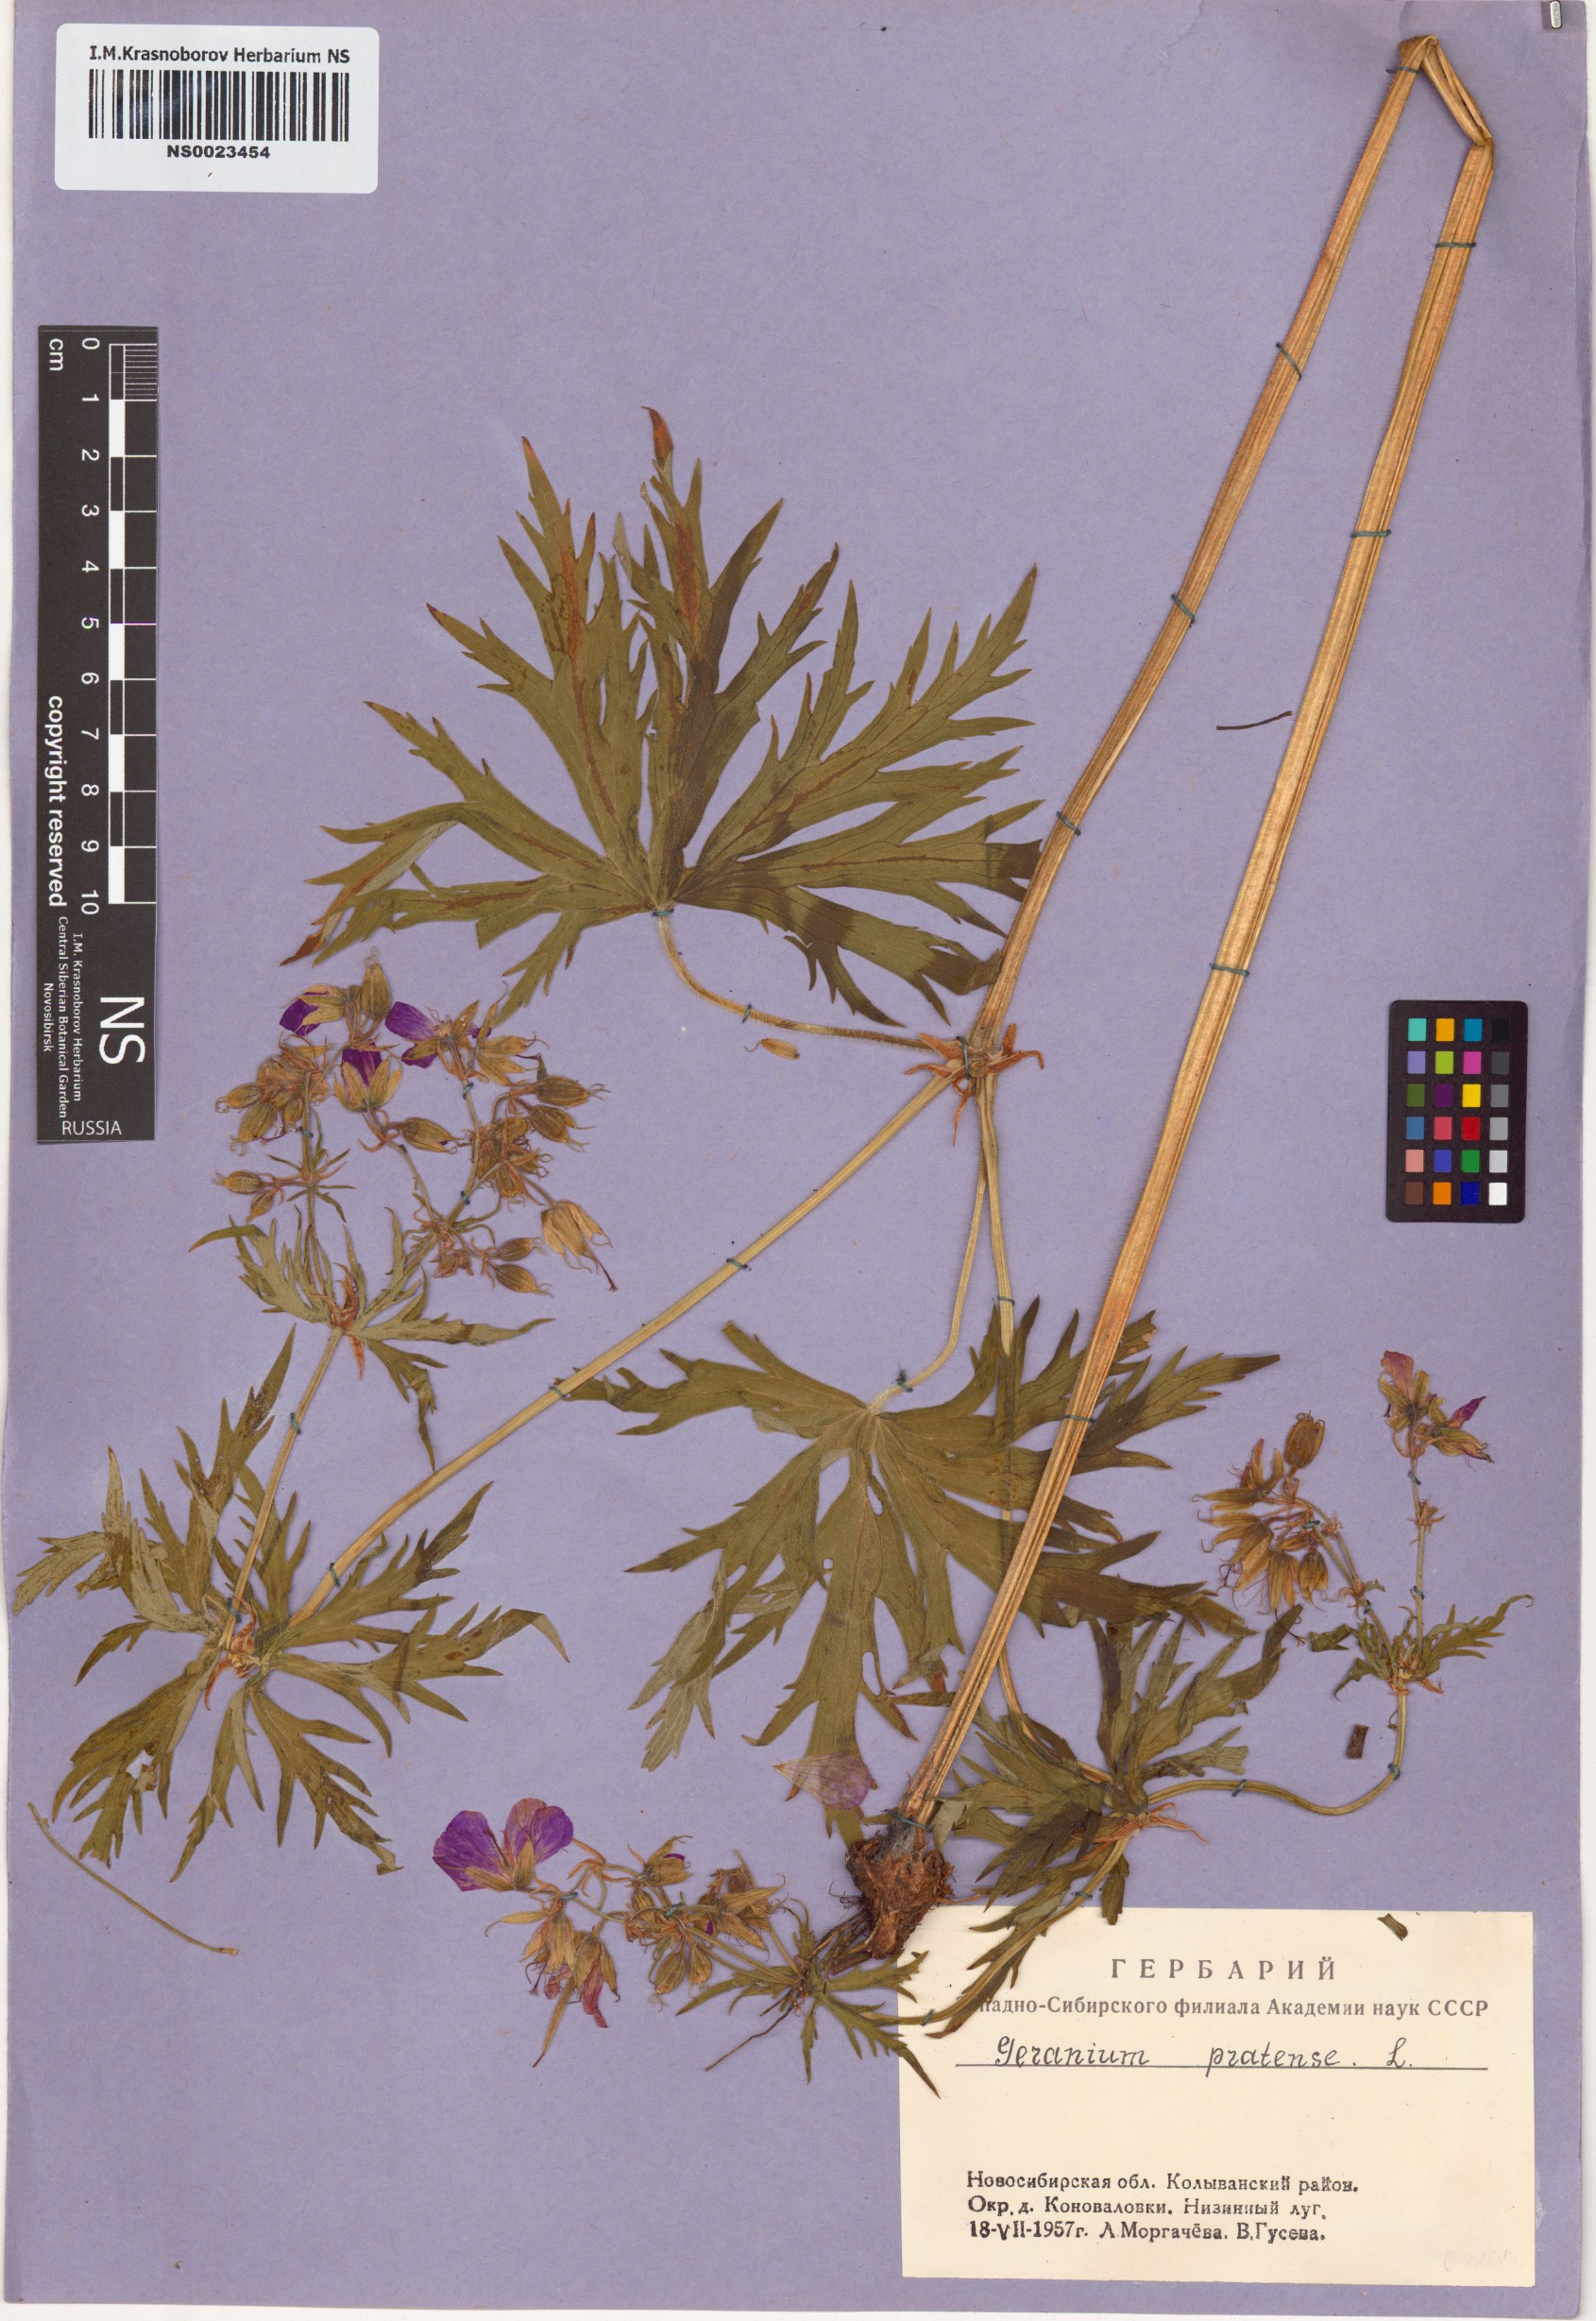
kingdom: Plantae
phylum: Tracheophyta
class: Magnoliopsida
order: Geraniales
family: Geraniaceae
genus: Geranium
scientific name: Geranium pratense
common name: Meadow crane's-bill
